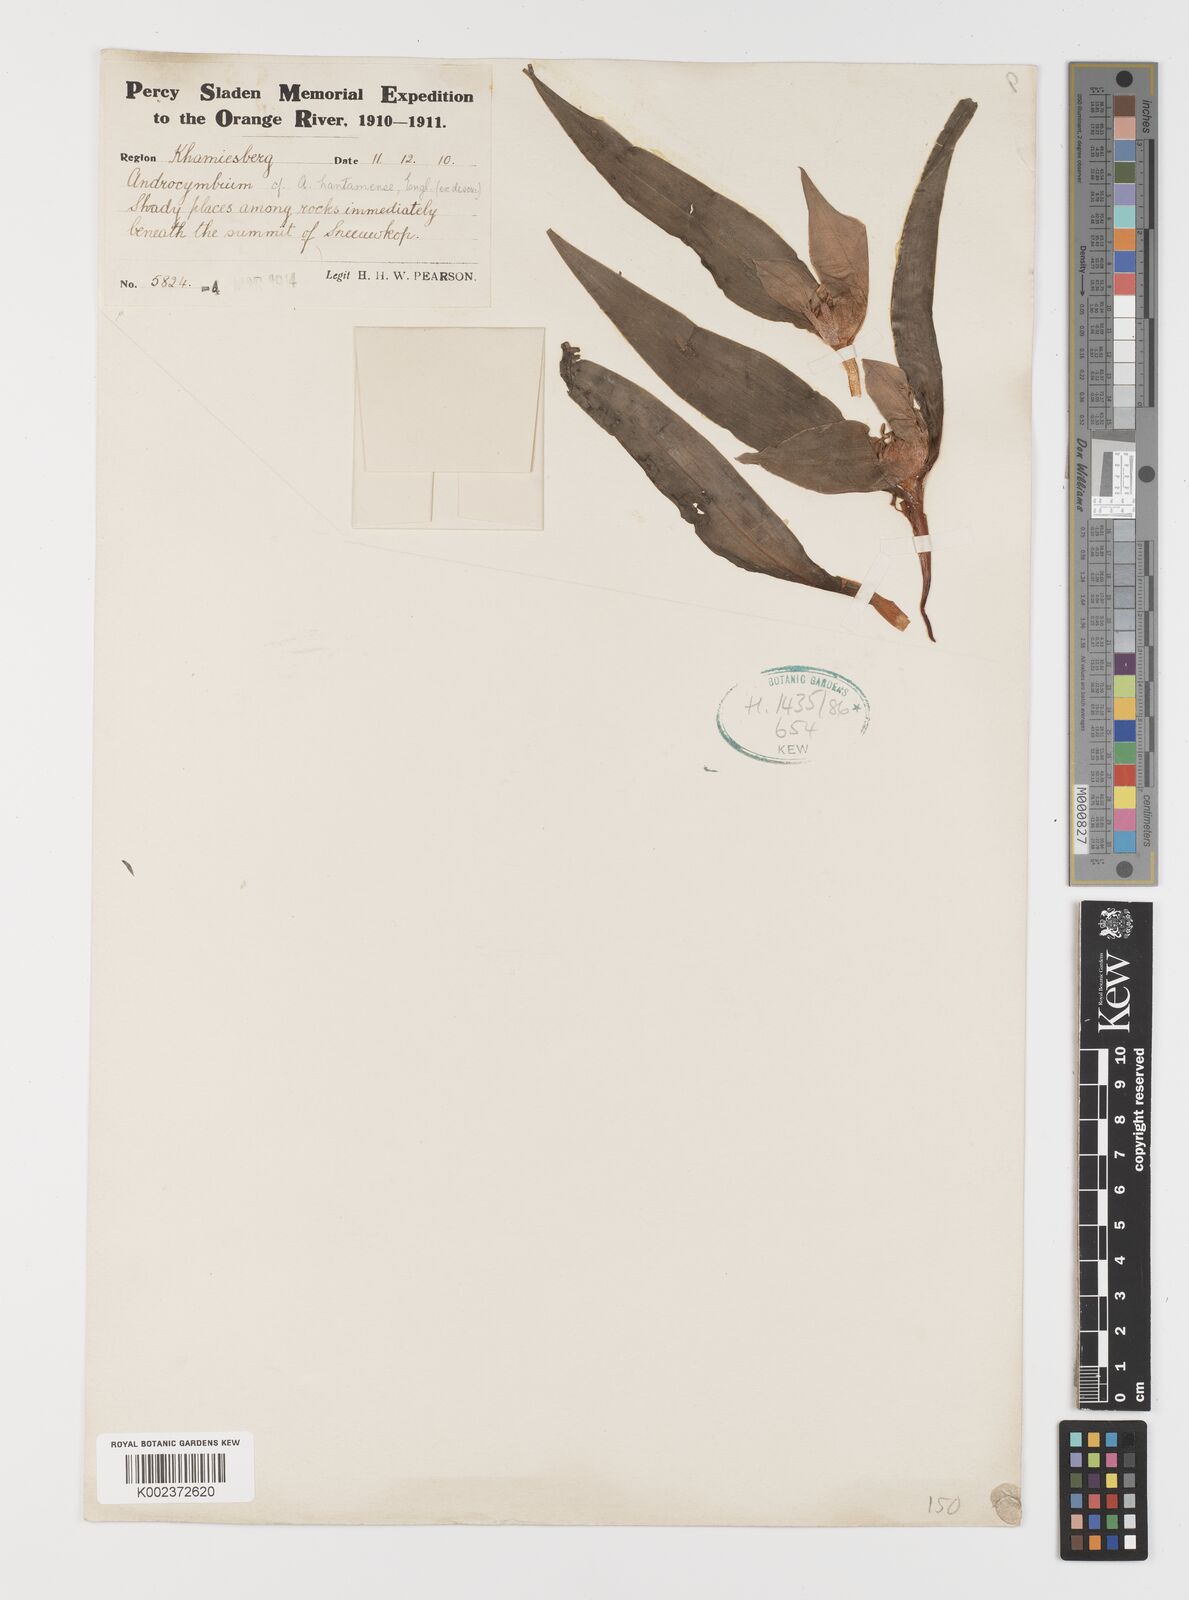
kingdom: Plantae
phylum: Tracheophyta
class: Liliopsida
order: Liliales
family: Colchicaceae
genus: Colchicum
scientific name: Colchicum hantamense
